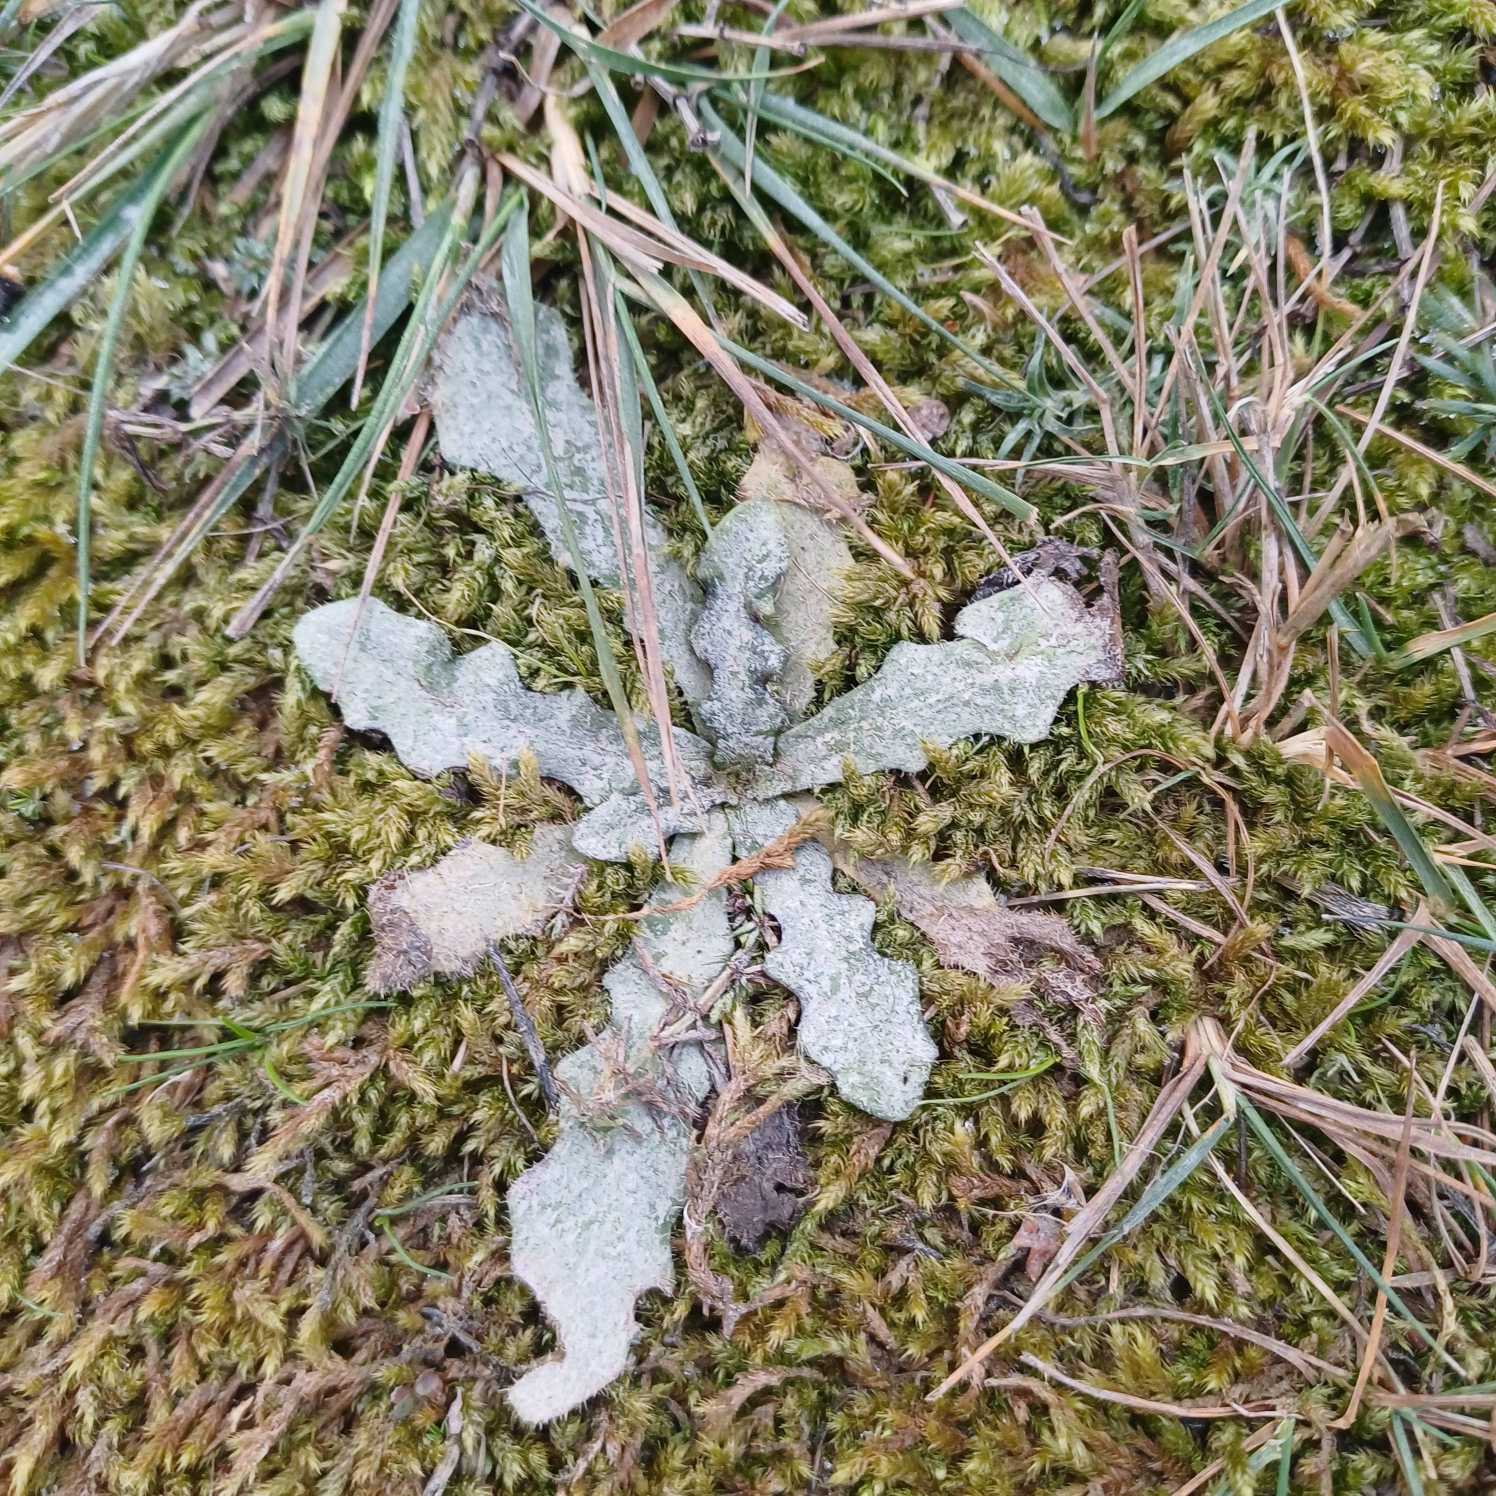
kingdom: Plantae
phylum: Tracheophyta
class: Magnoliopsida
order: Asterales
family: Asteraceae
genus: Hypochaeris
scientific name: Hypochaeris radicata
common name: Almindelig kongepen
